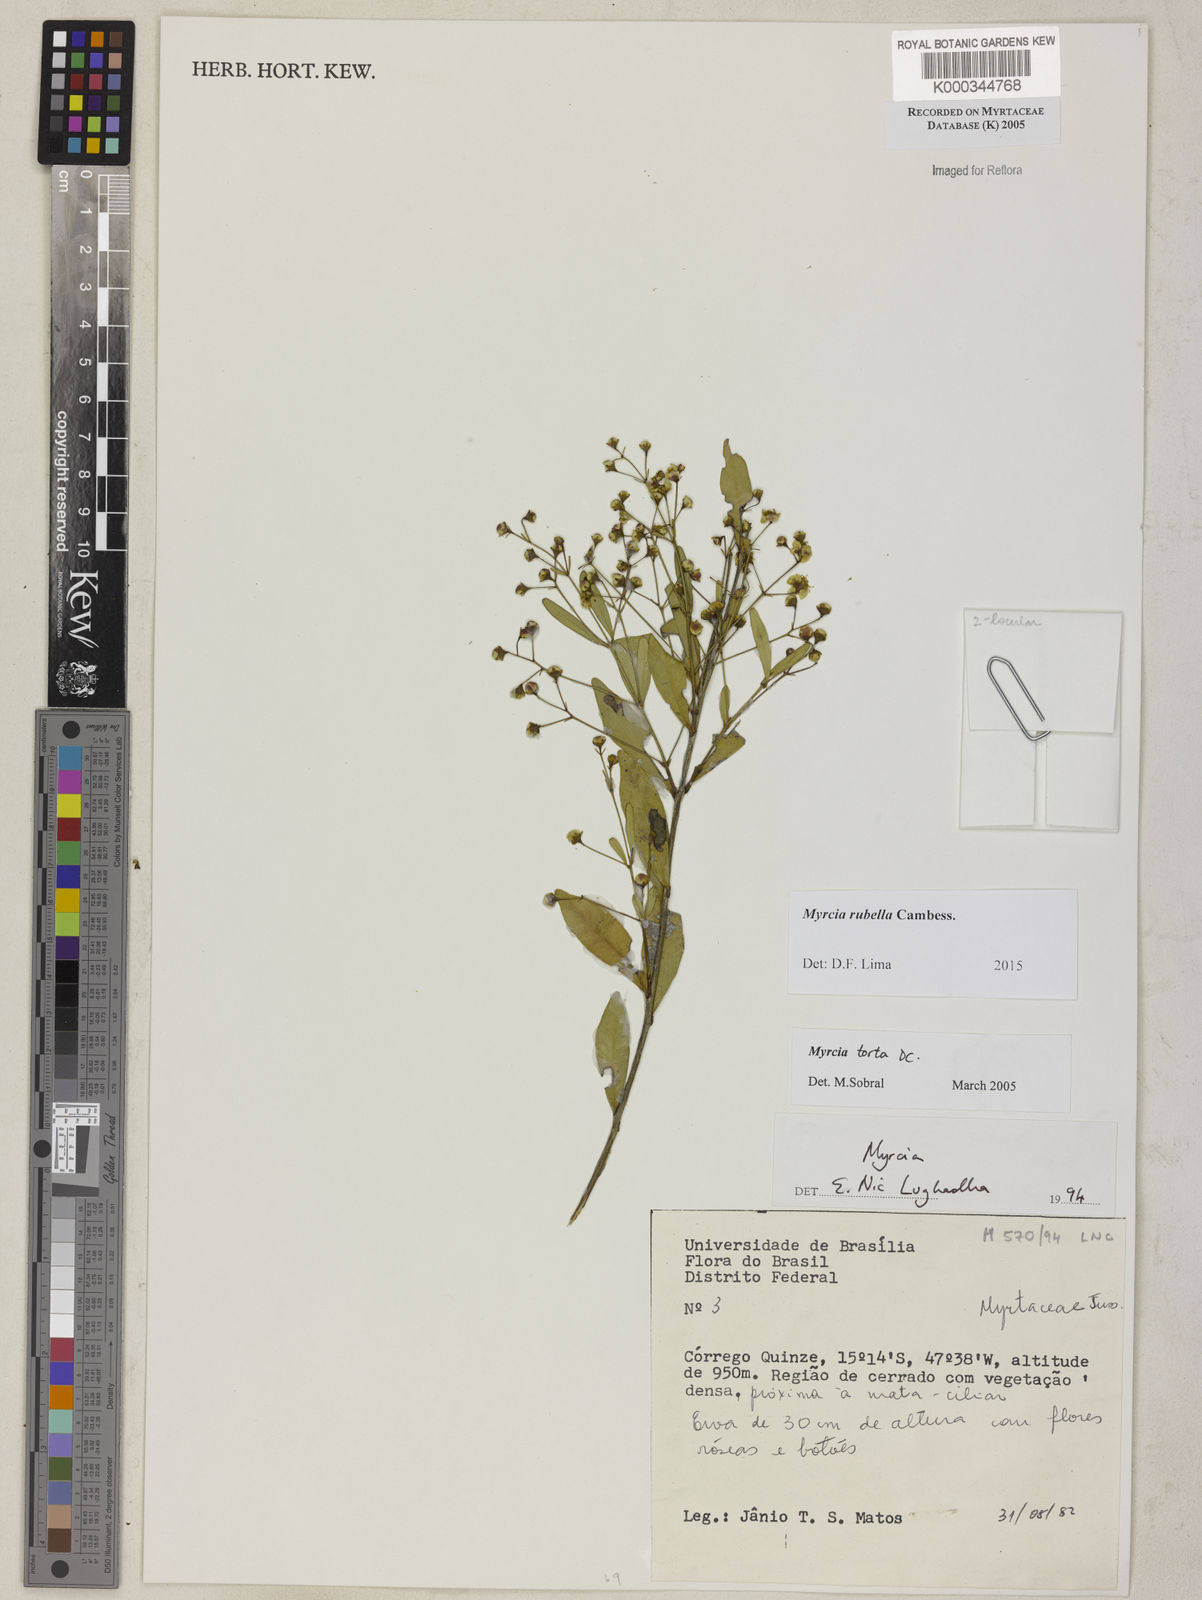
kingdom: Plantae
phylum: Tracheophyta
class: Magnoliopsida
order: Myrtales
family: Myrtaceae
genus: Myrcia
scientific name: Myrcia guianensis
